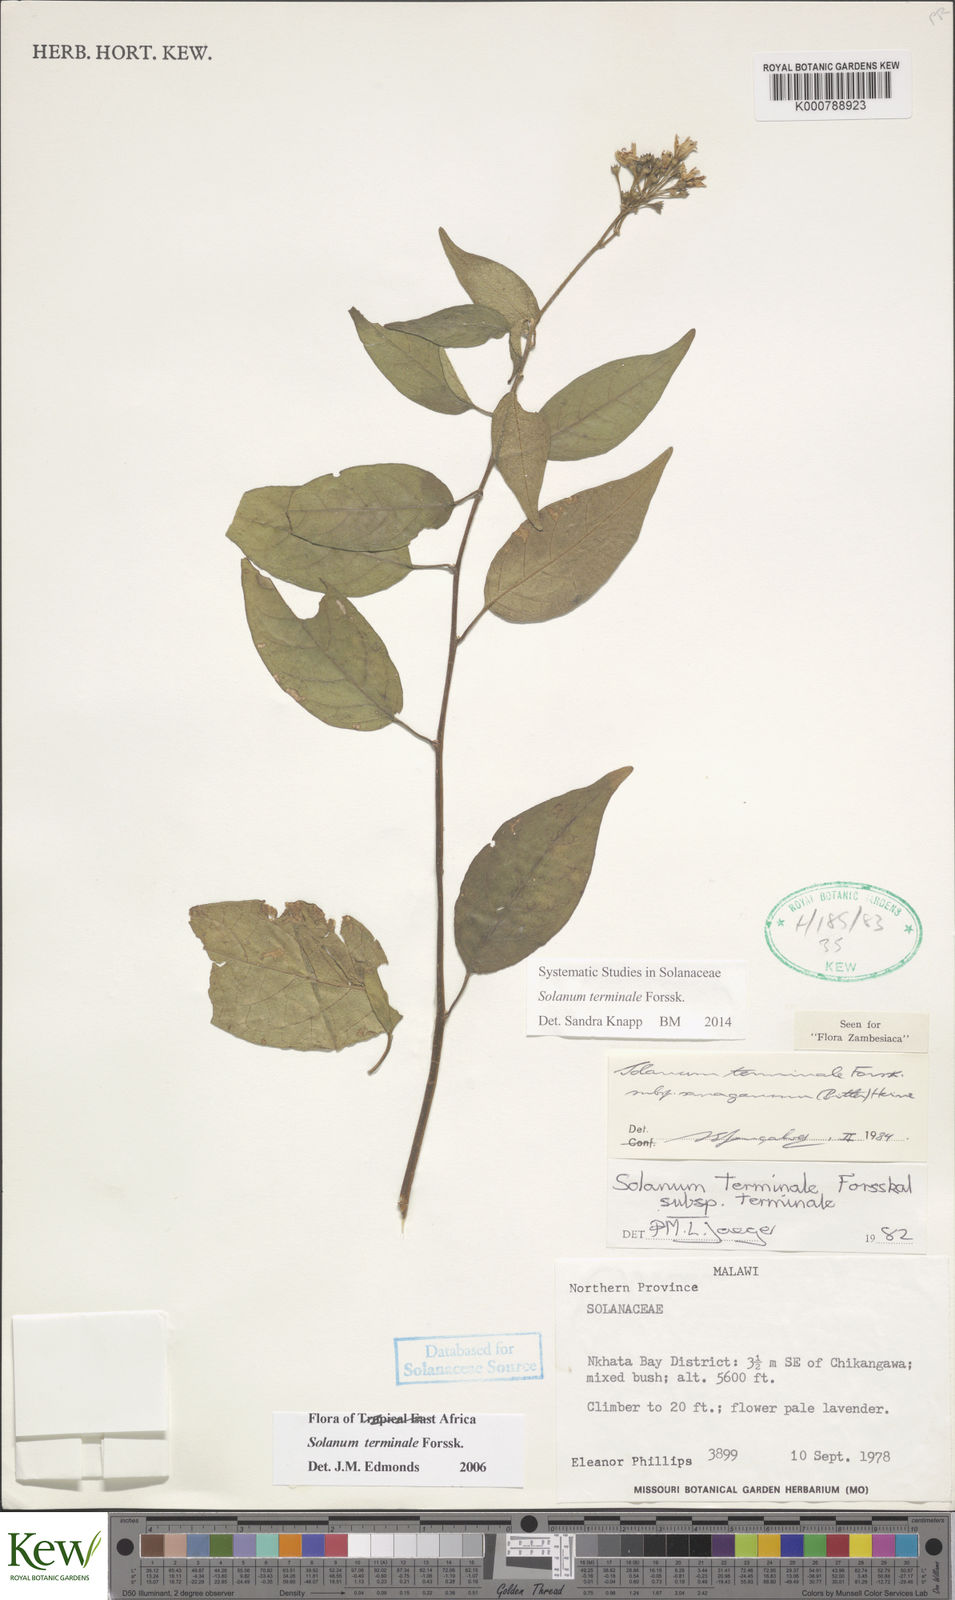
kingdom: Plantae
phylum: Tracheophyta
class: Magnoliopsida
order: Solanales
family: Solanaceae
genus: Solanum
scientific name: Solanum terminale
